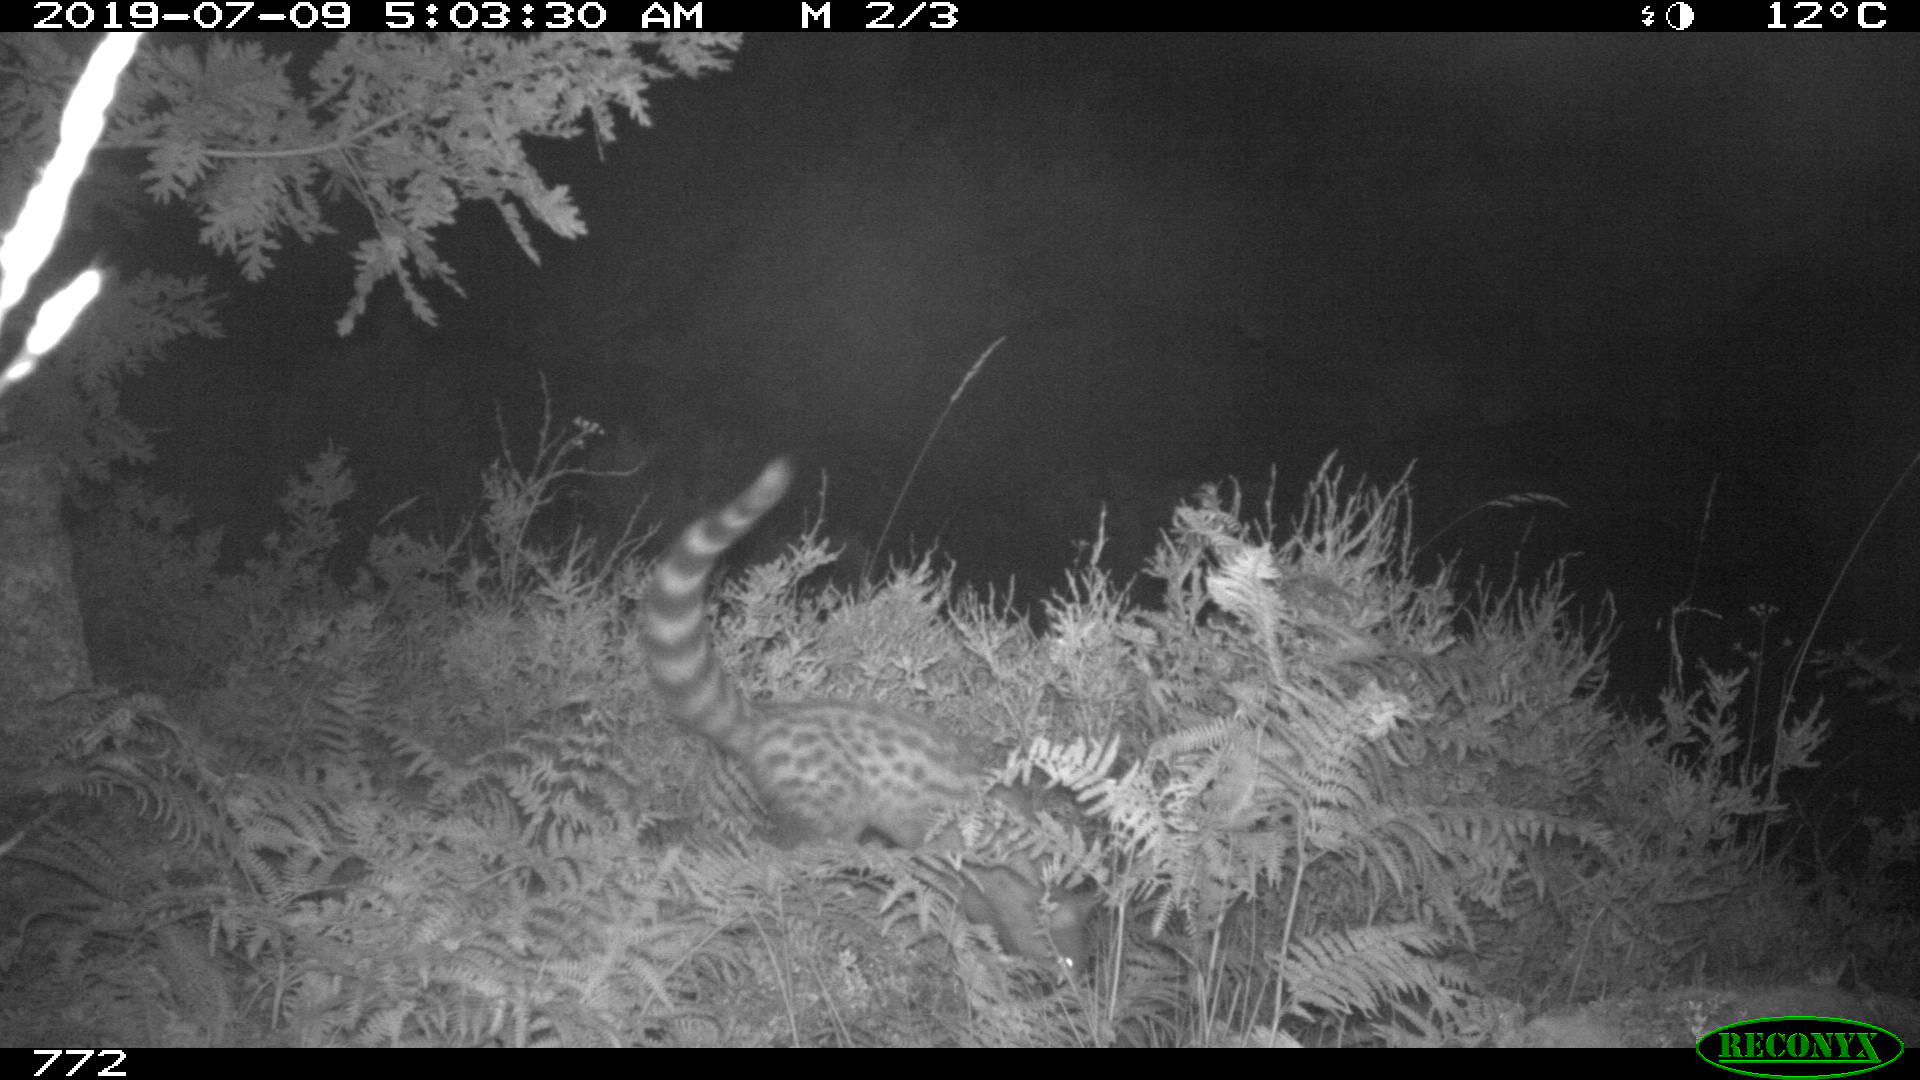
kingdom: Animalia
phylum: Chordata
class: Mammalia
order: Carnivora
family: Viverridae
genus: Genetta
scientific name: Genetta genetta
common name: Common genet
